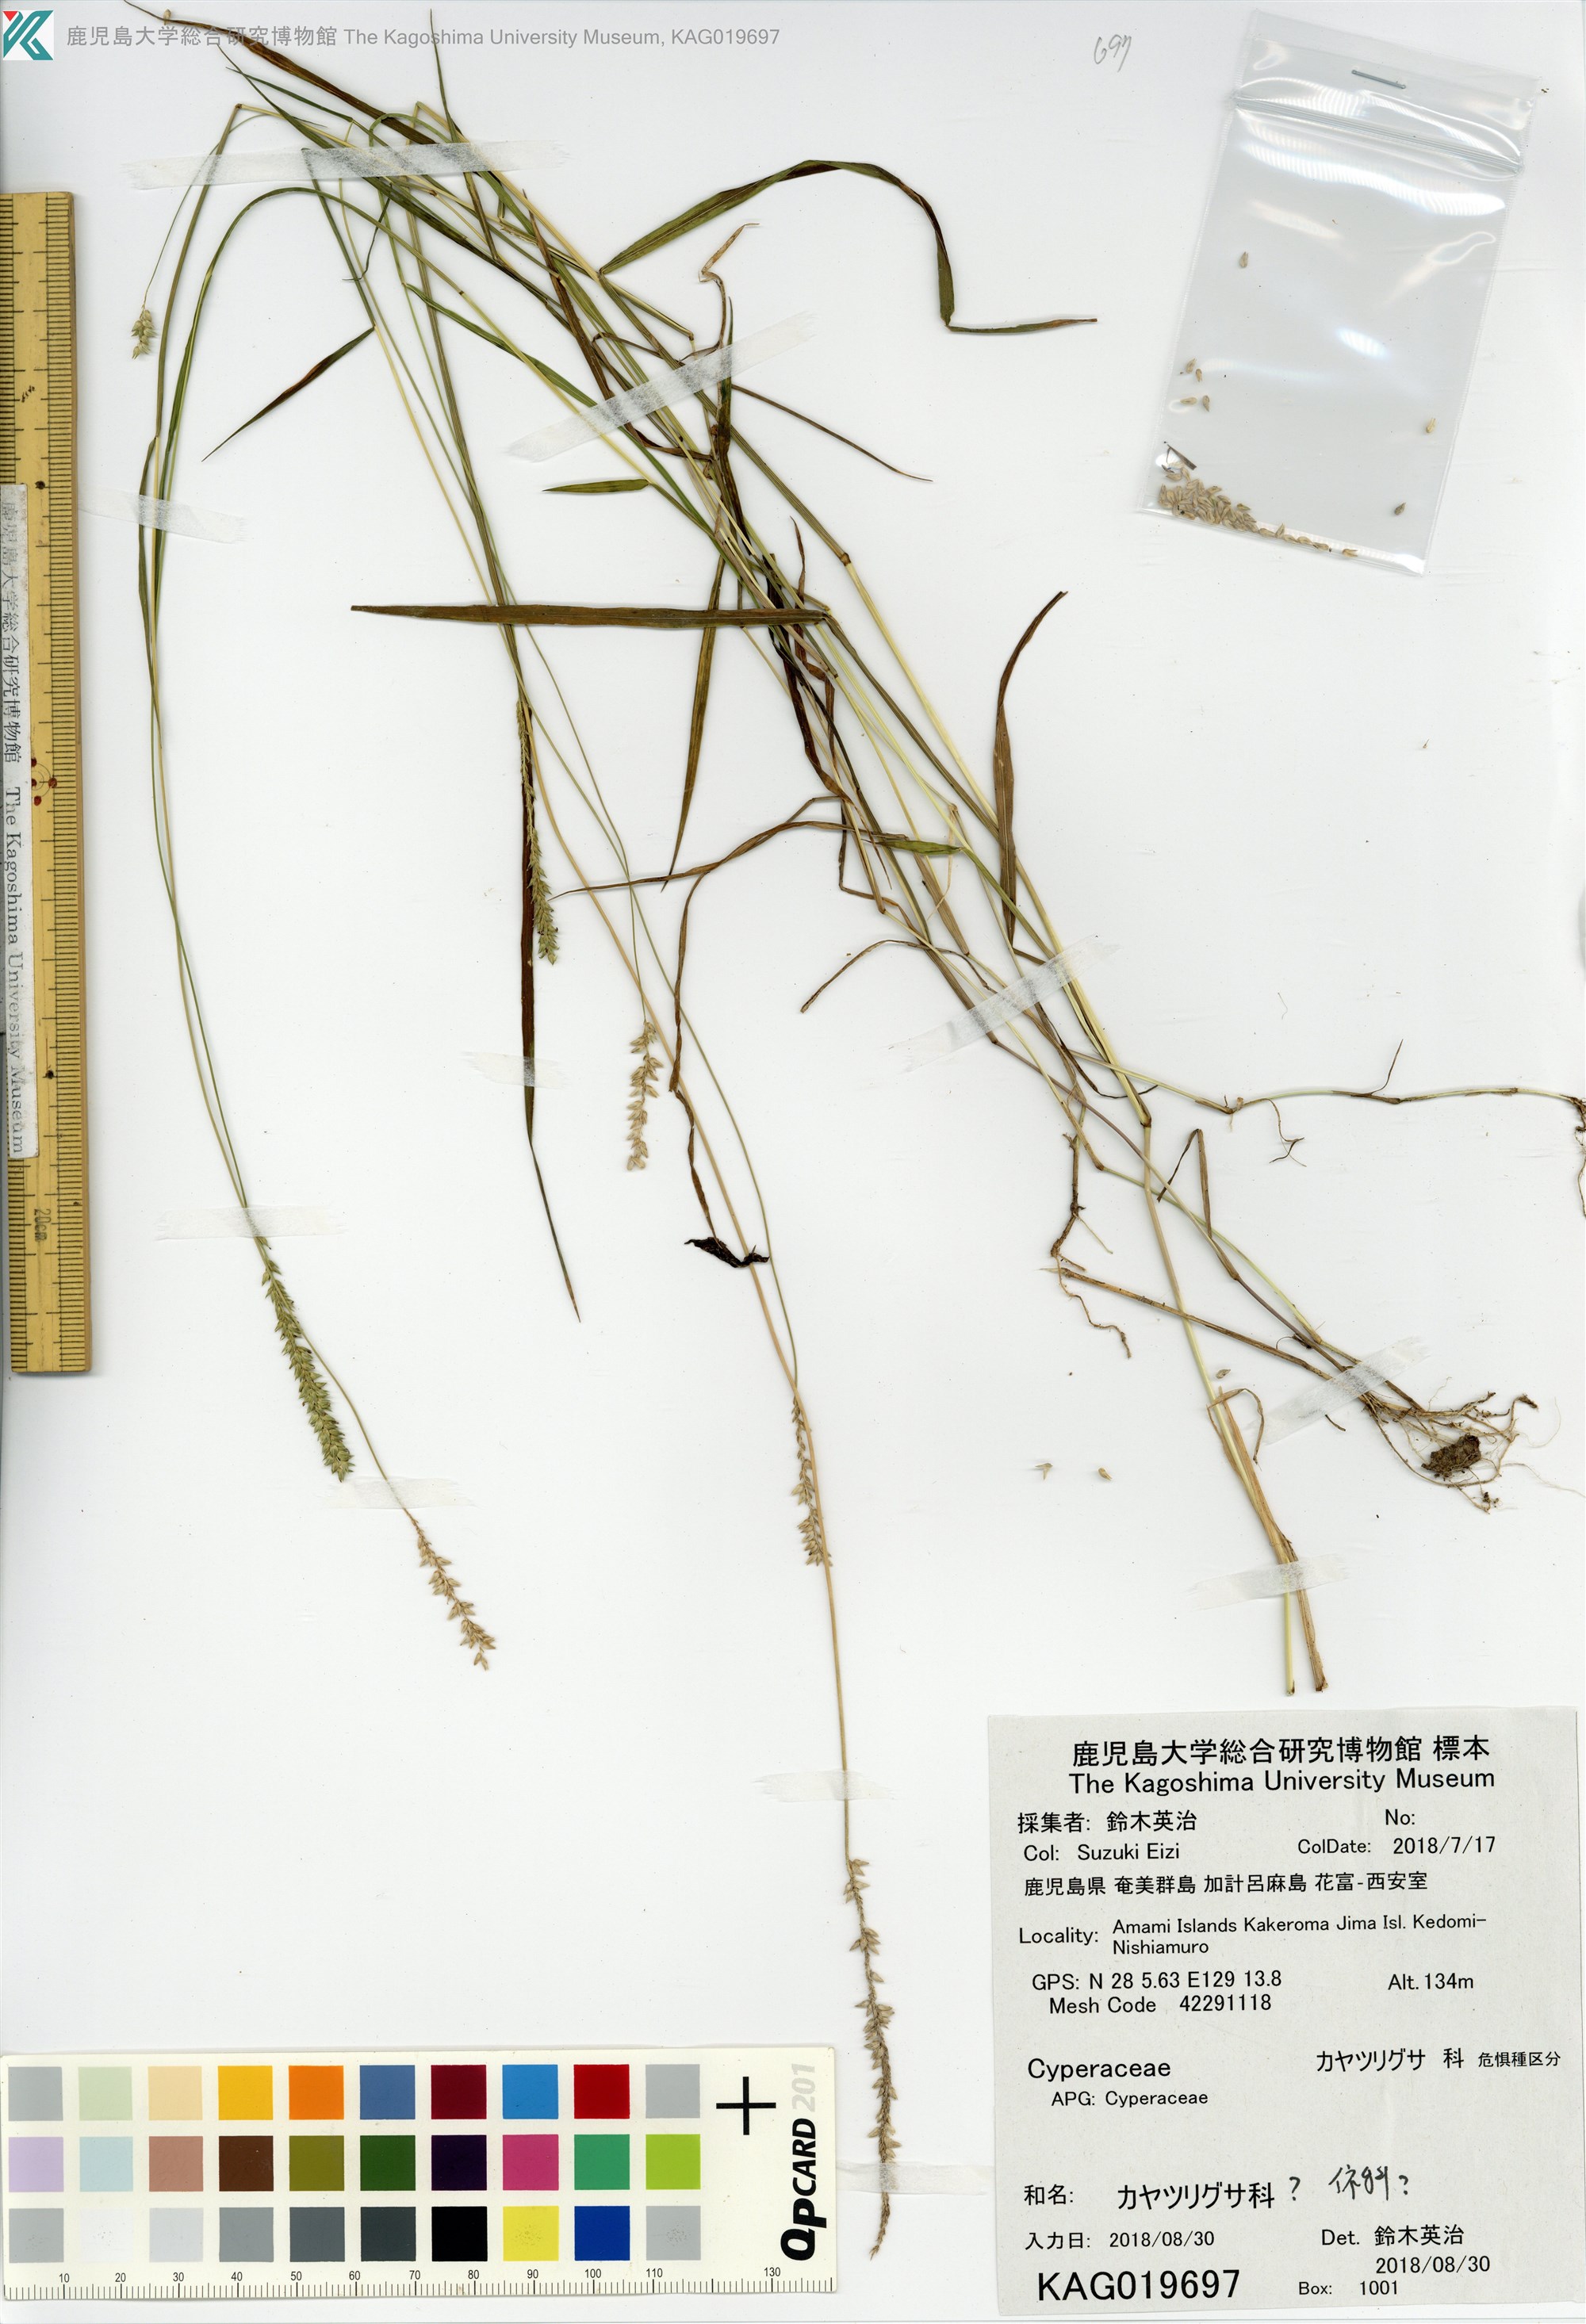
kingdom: Plantae
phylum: Tracheophyta
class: Liliopsida
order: Poales
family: Poaceae
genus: Sacciolepis
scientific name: Sacciolepis
